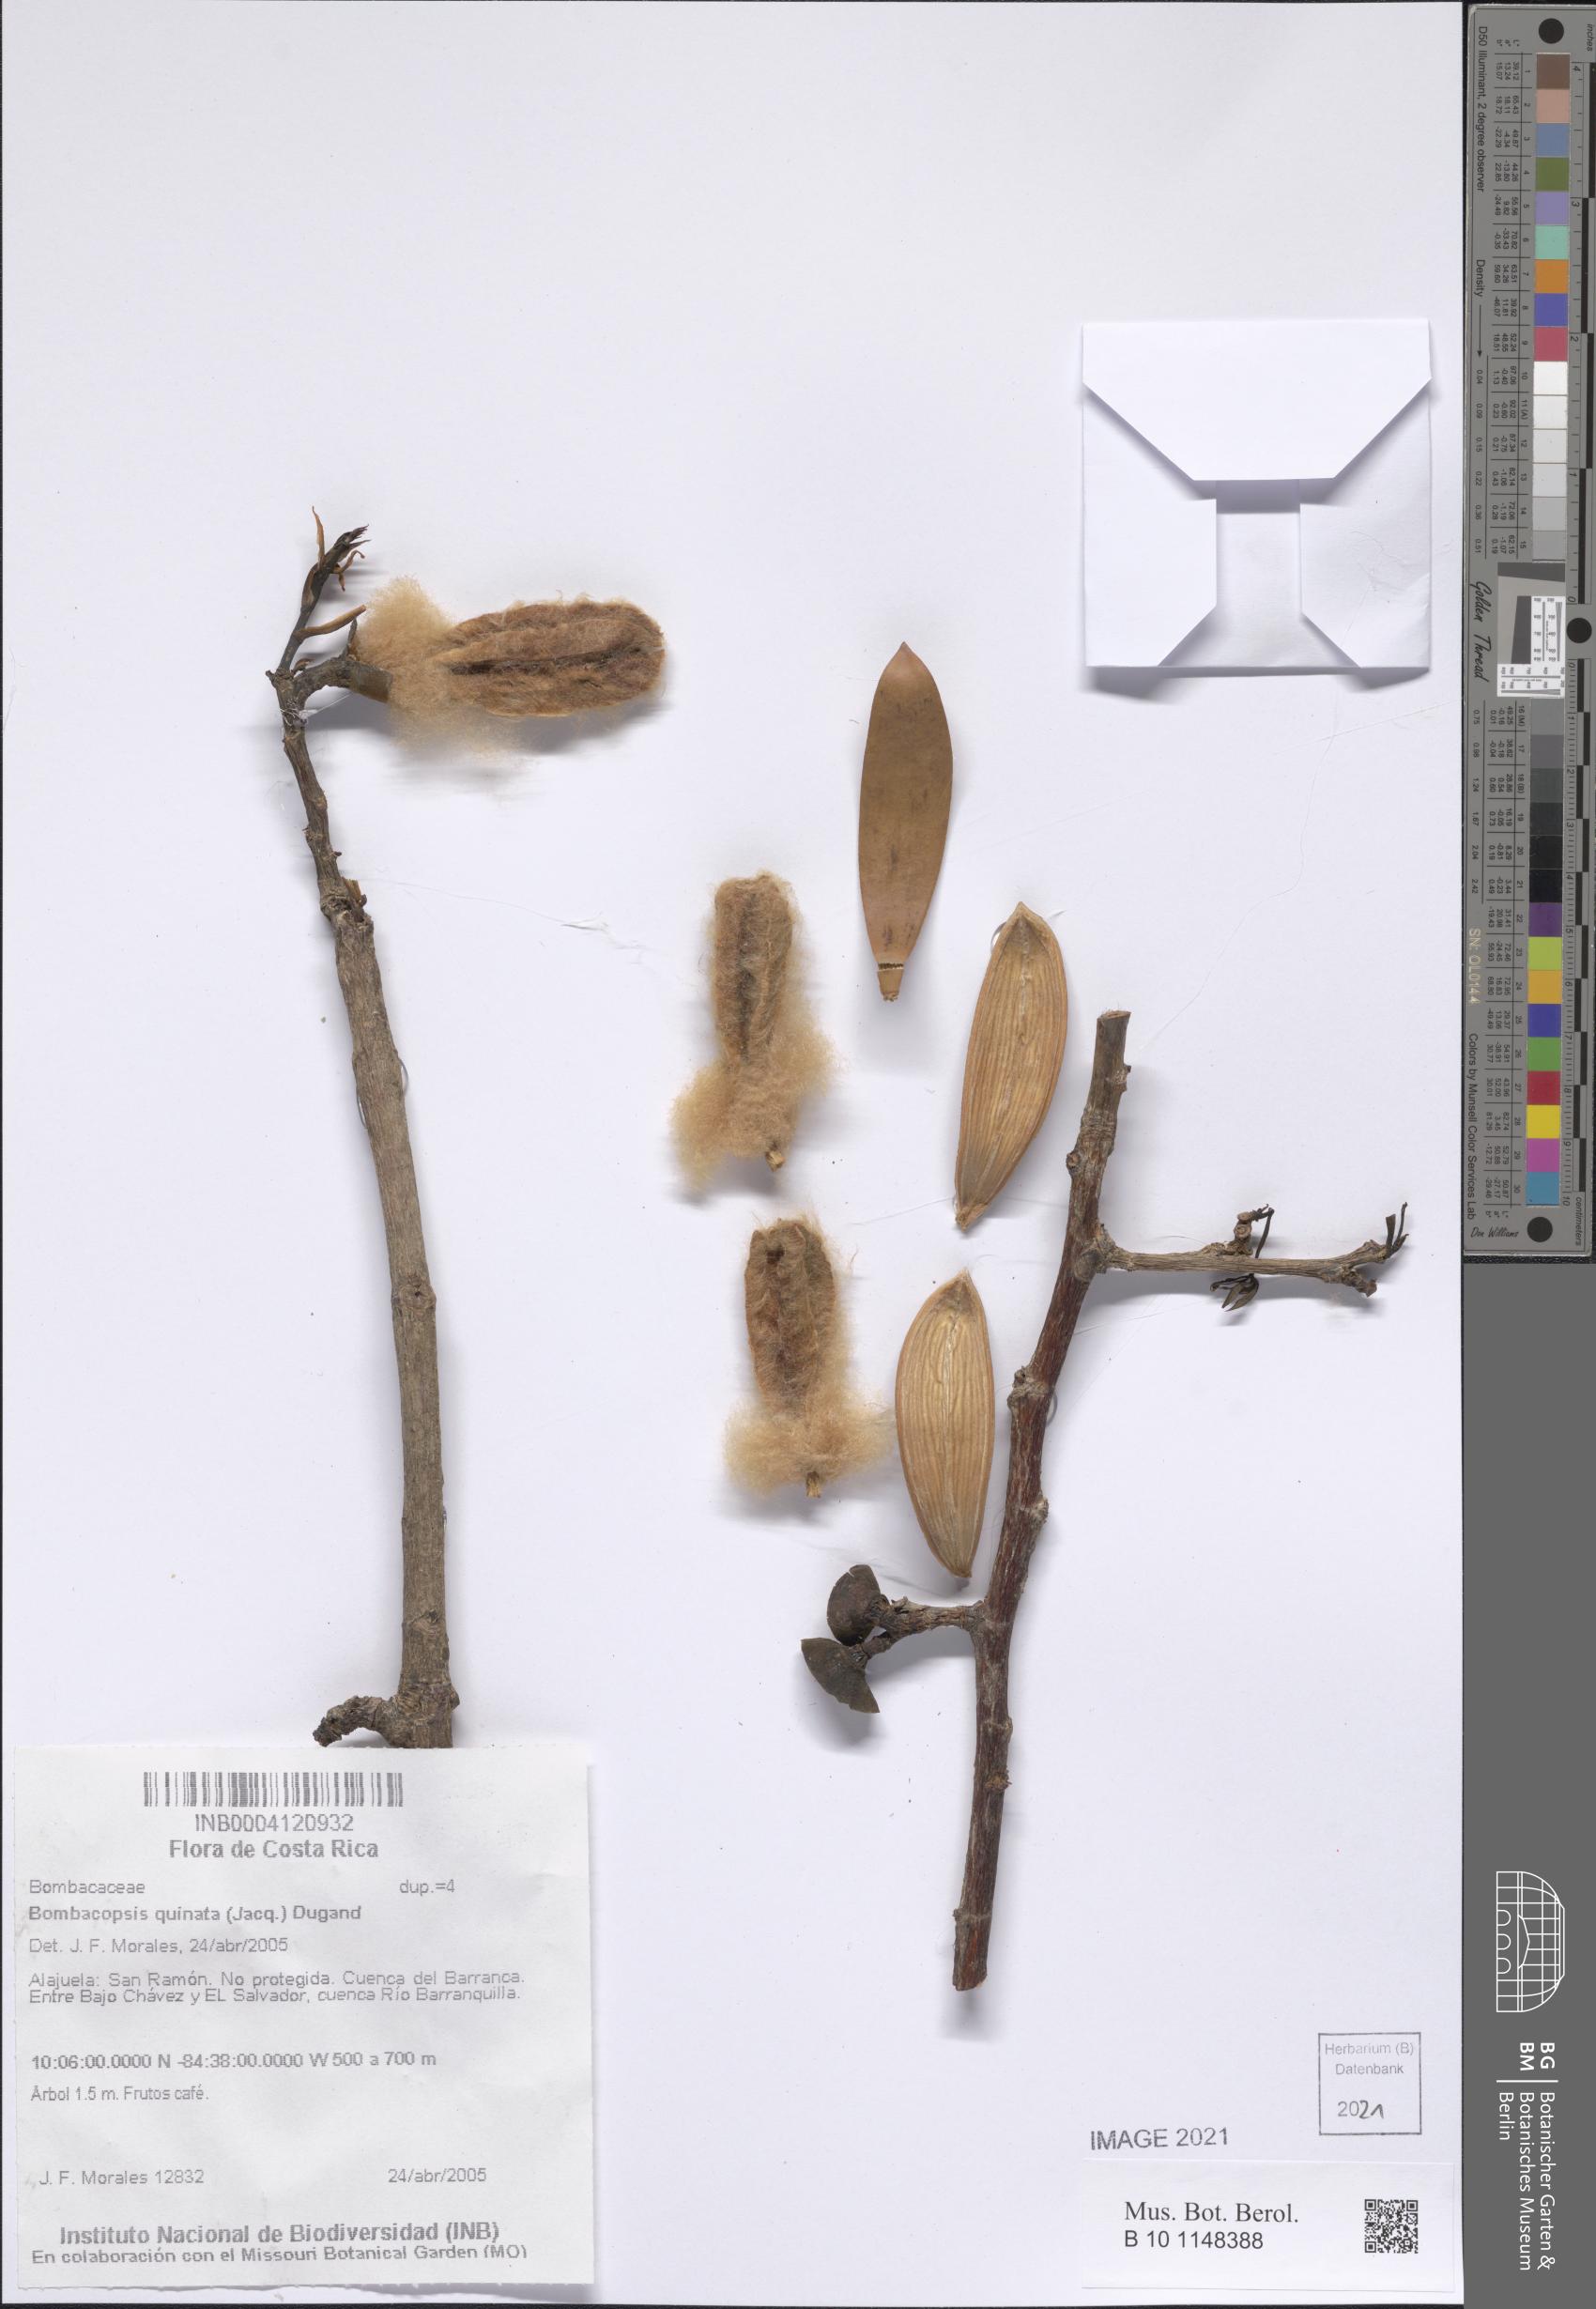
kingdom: Plantae
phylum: Tracheophyta
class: Magnoliopsida
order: Malvales
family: Malvaceae
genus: Pochota
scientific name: Pochota fendleri
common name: Chestnut
